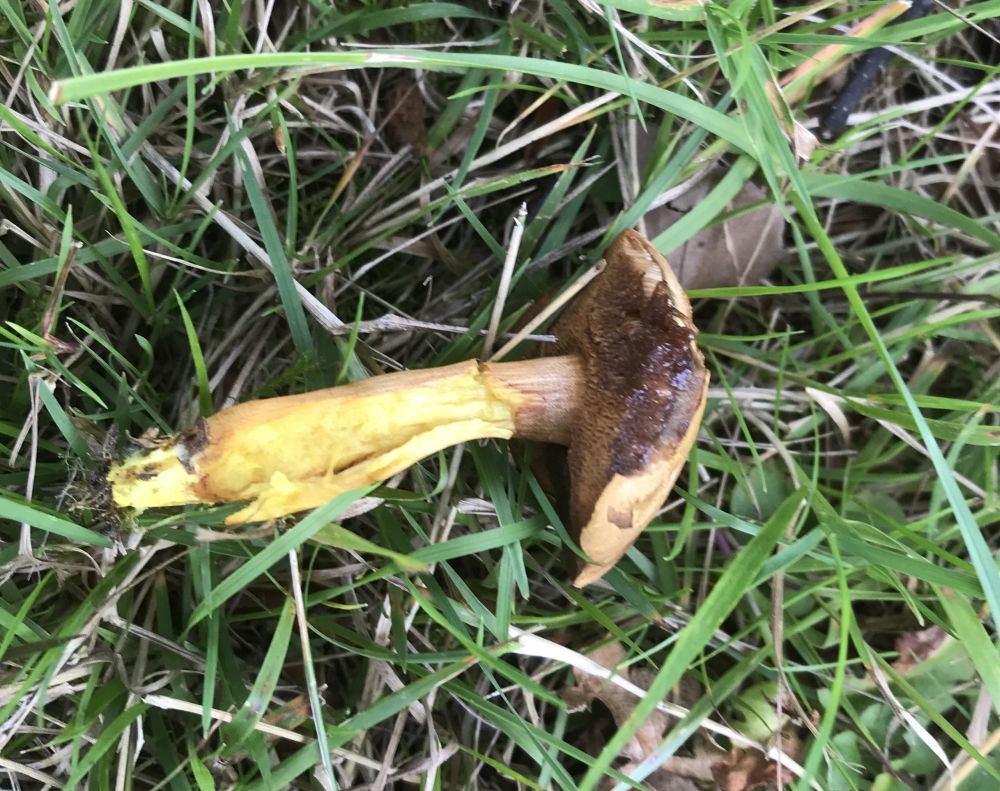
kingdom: Fungi
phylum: Basidiomycota
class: Agaricomycetes
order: Boletales
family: Boletaceae
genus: Chalciporus
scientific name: Chalciporus piperatus
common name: peberrørhat
